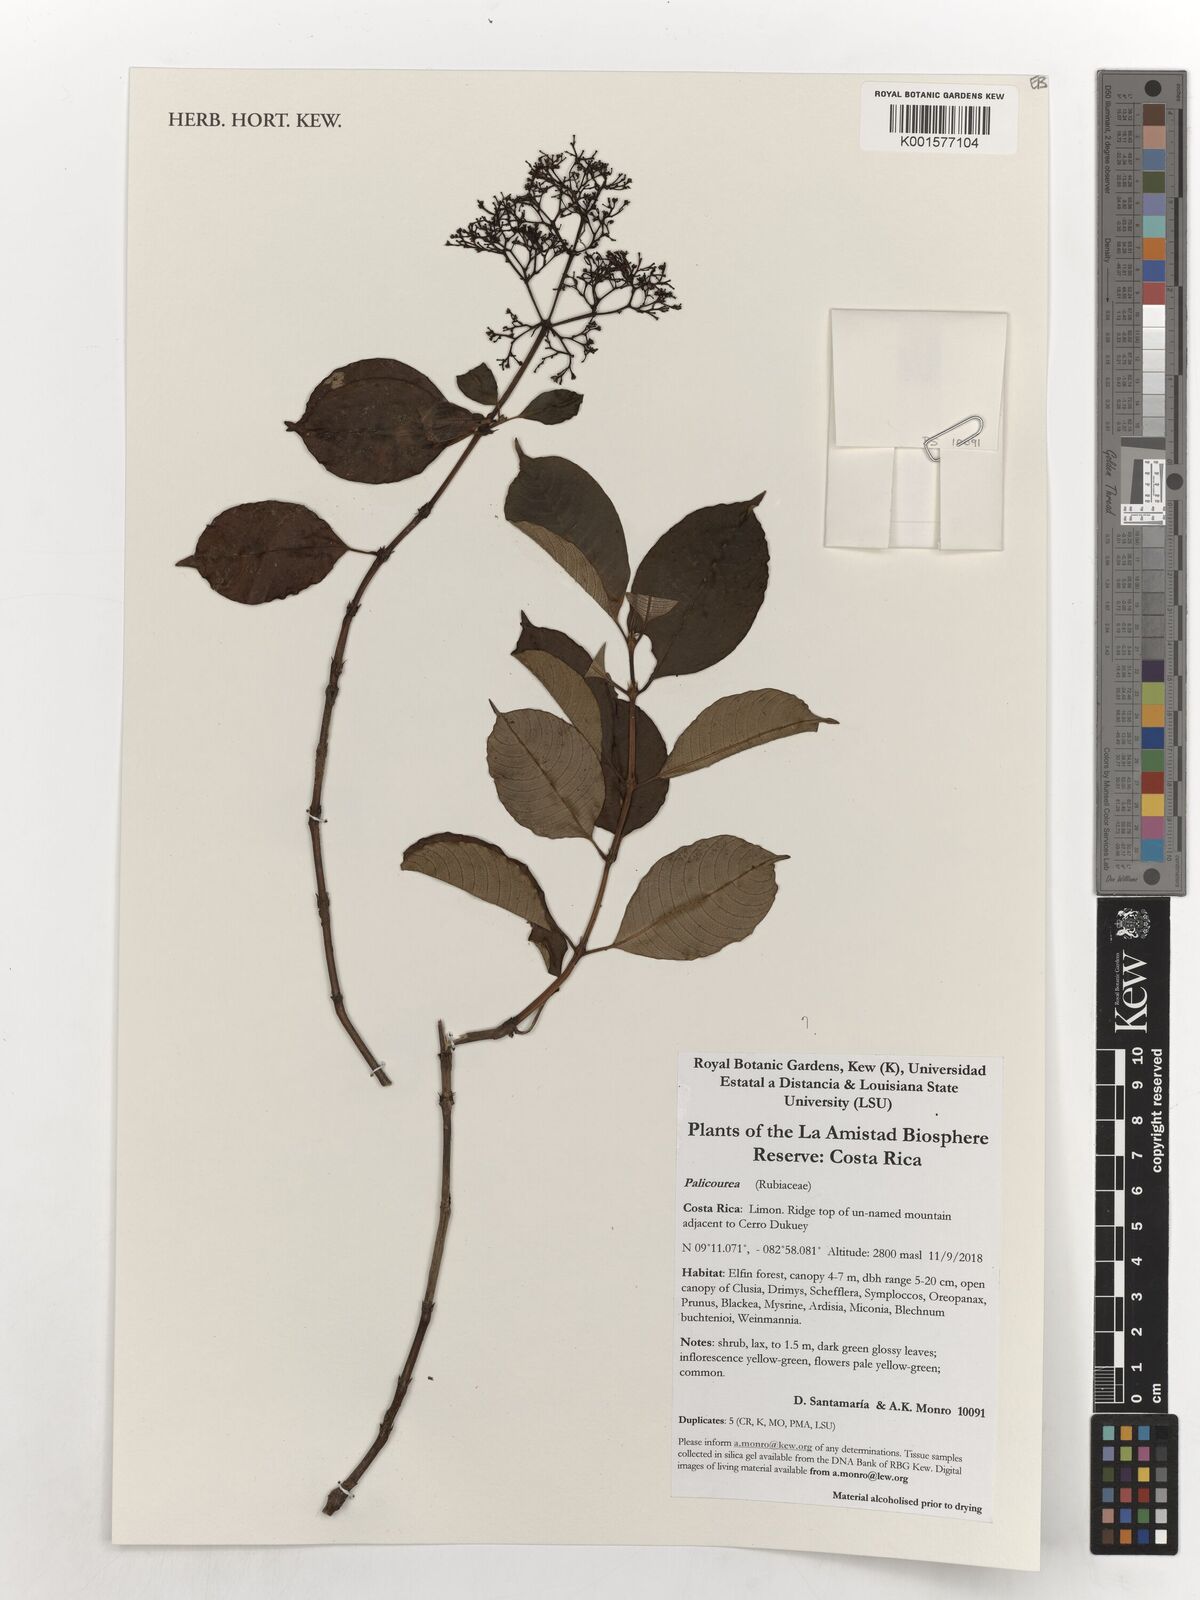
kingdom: Plantae
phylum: Tracheophyta
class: Magnoliopsida
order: Gentianales
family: Rubiaceae
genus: Palicourea
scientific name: Palicourea
